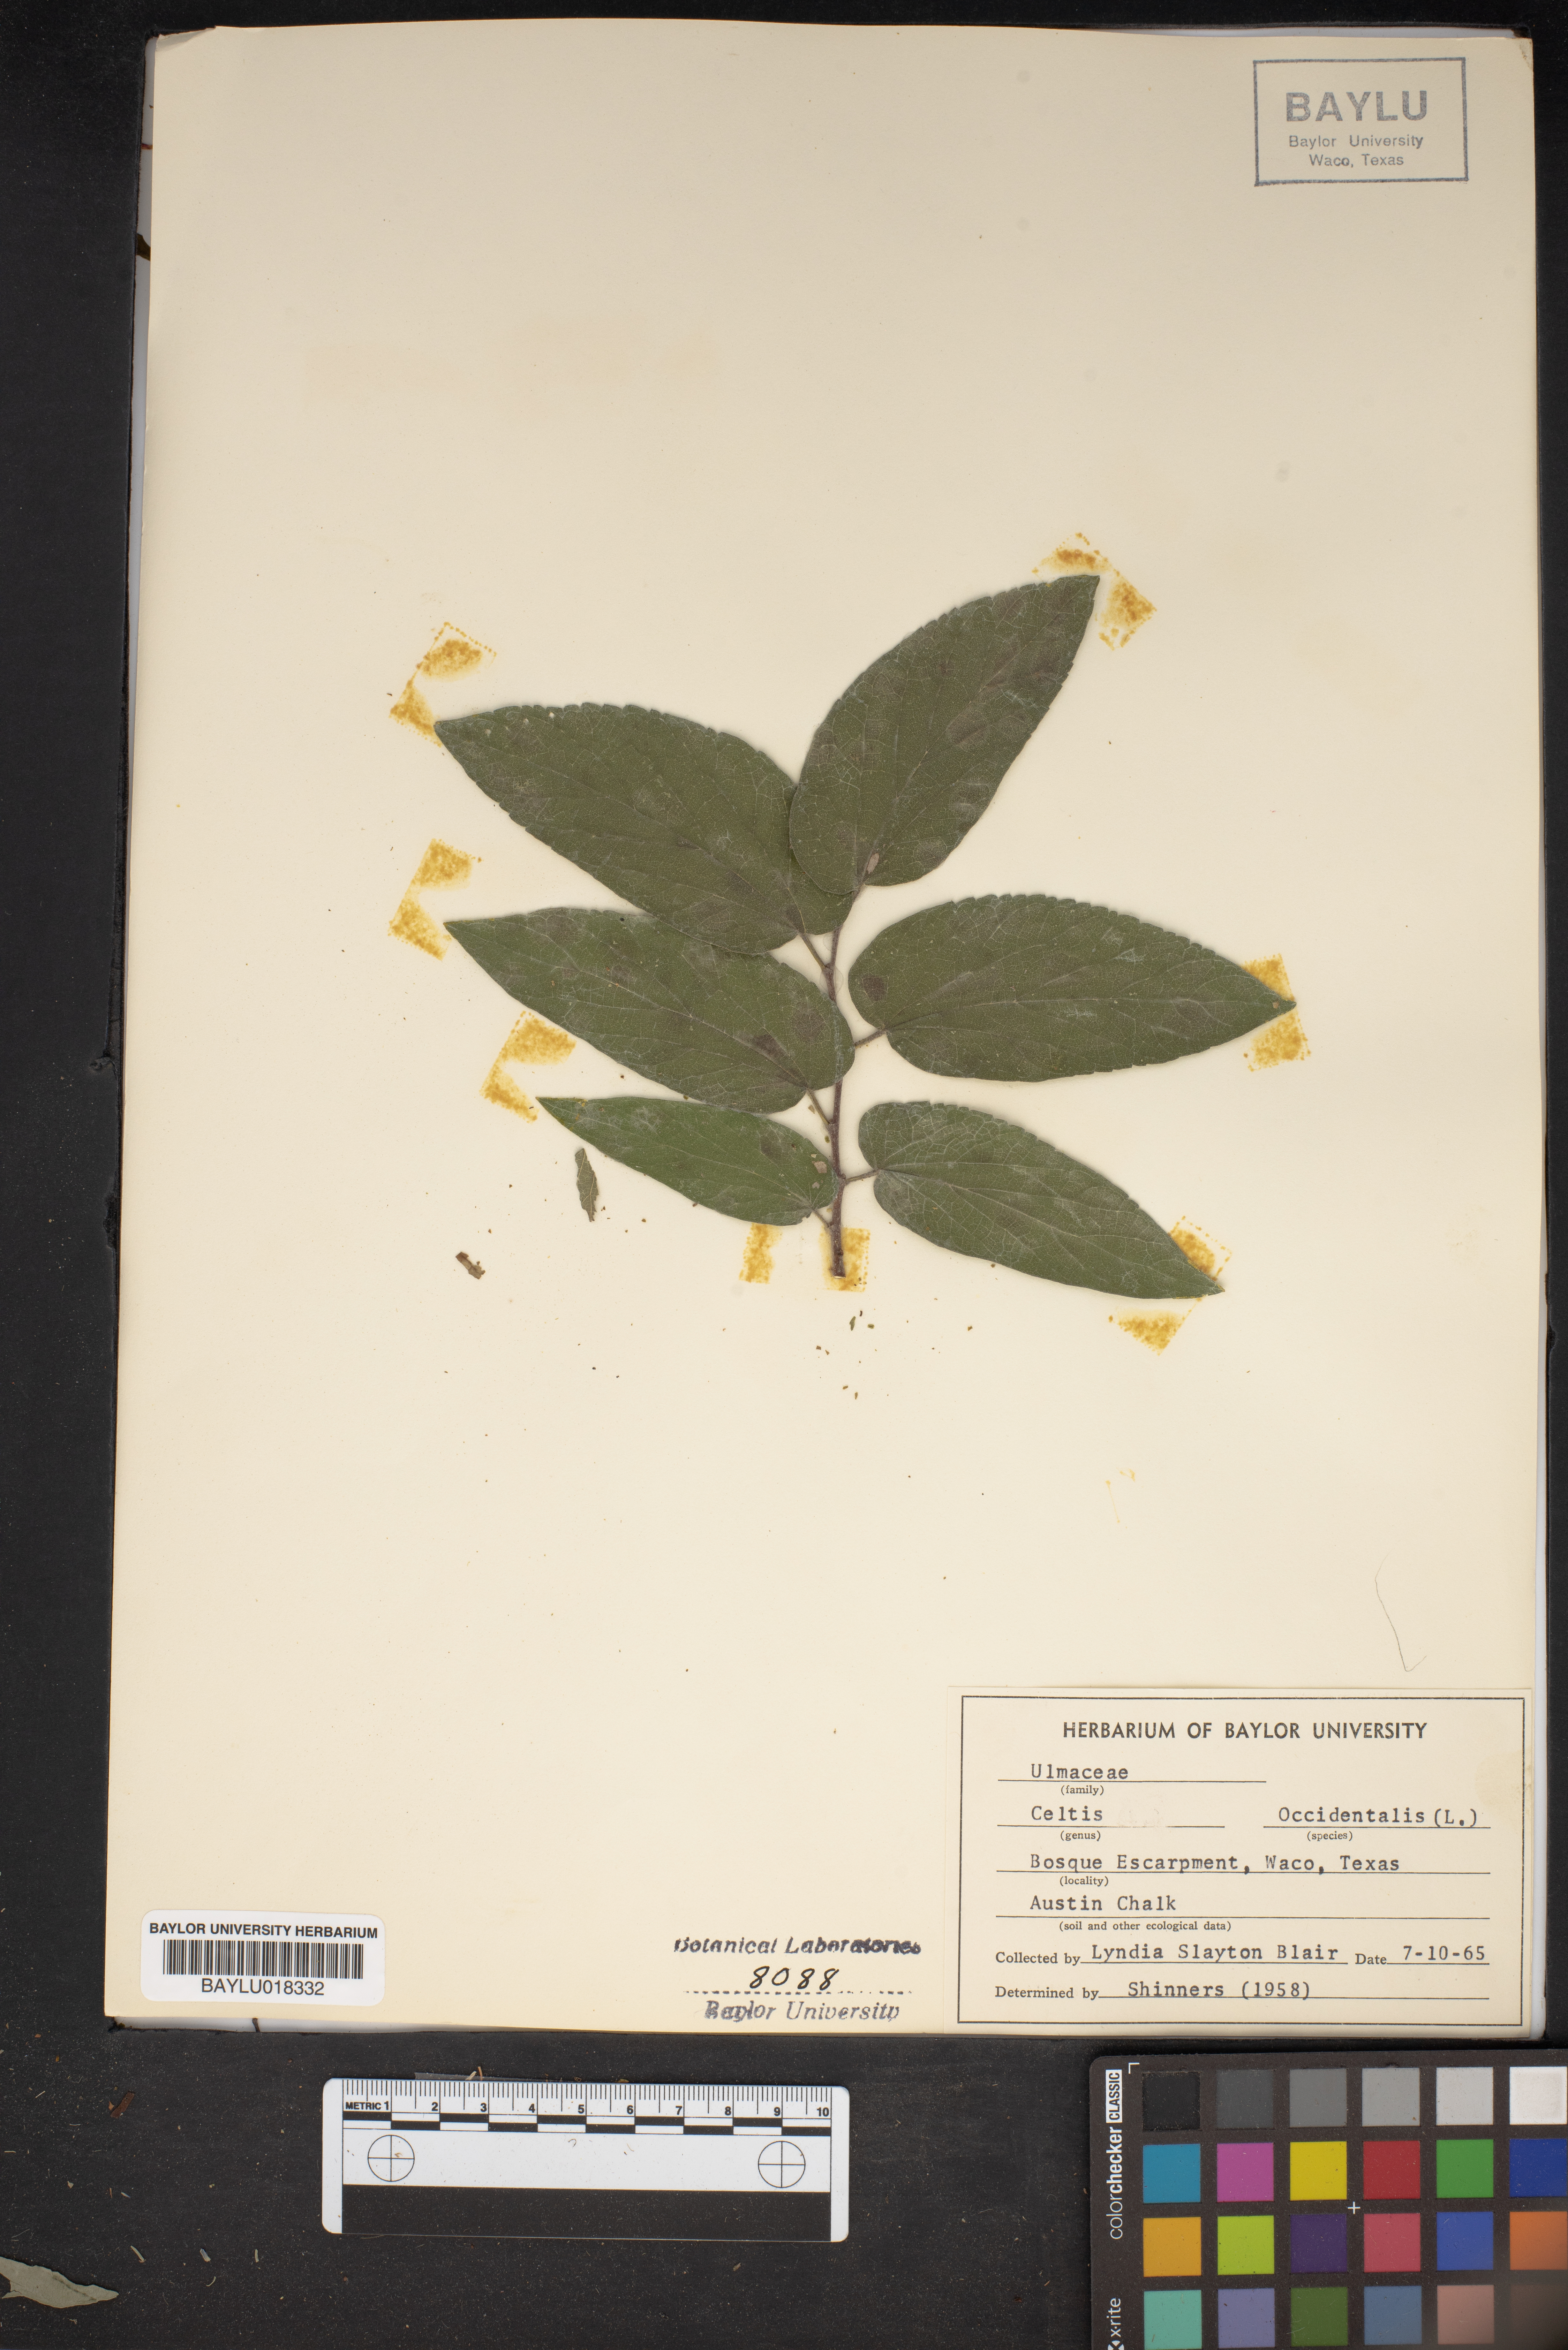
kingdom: Plantae
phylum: Tracheophyta
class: Magnoliopsida
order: Rosales
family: Cannabaceae
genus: Celtis
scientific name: Celtis occidentalis
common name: Common hackberry
